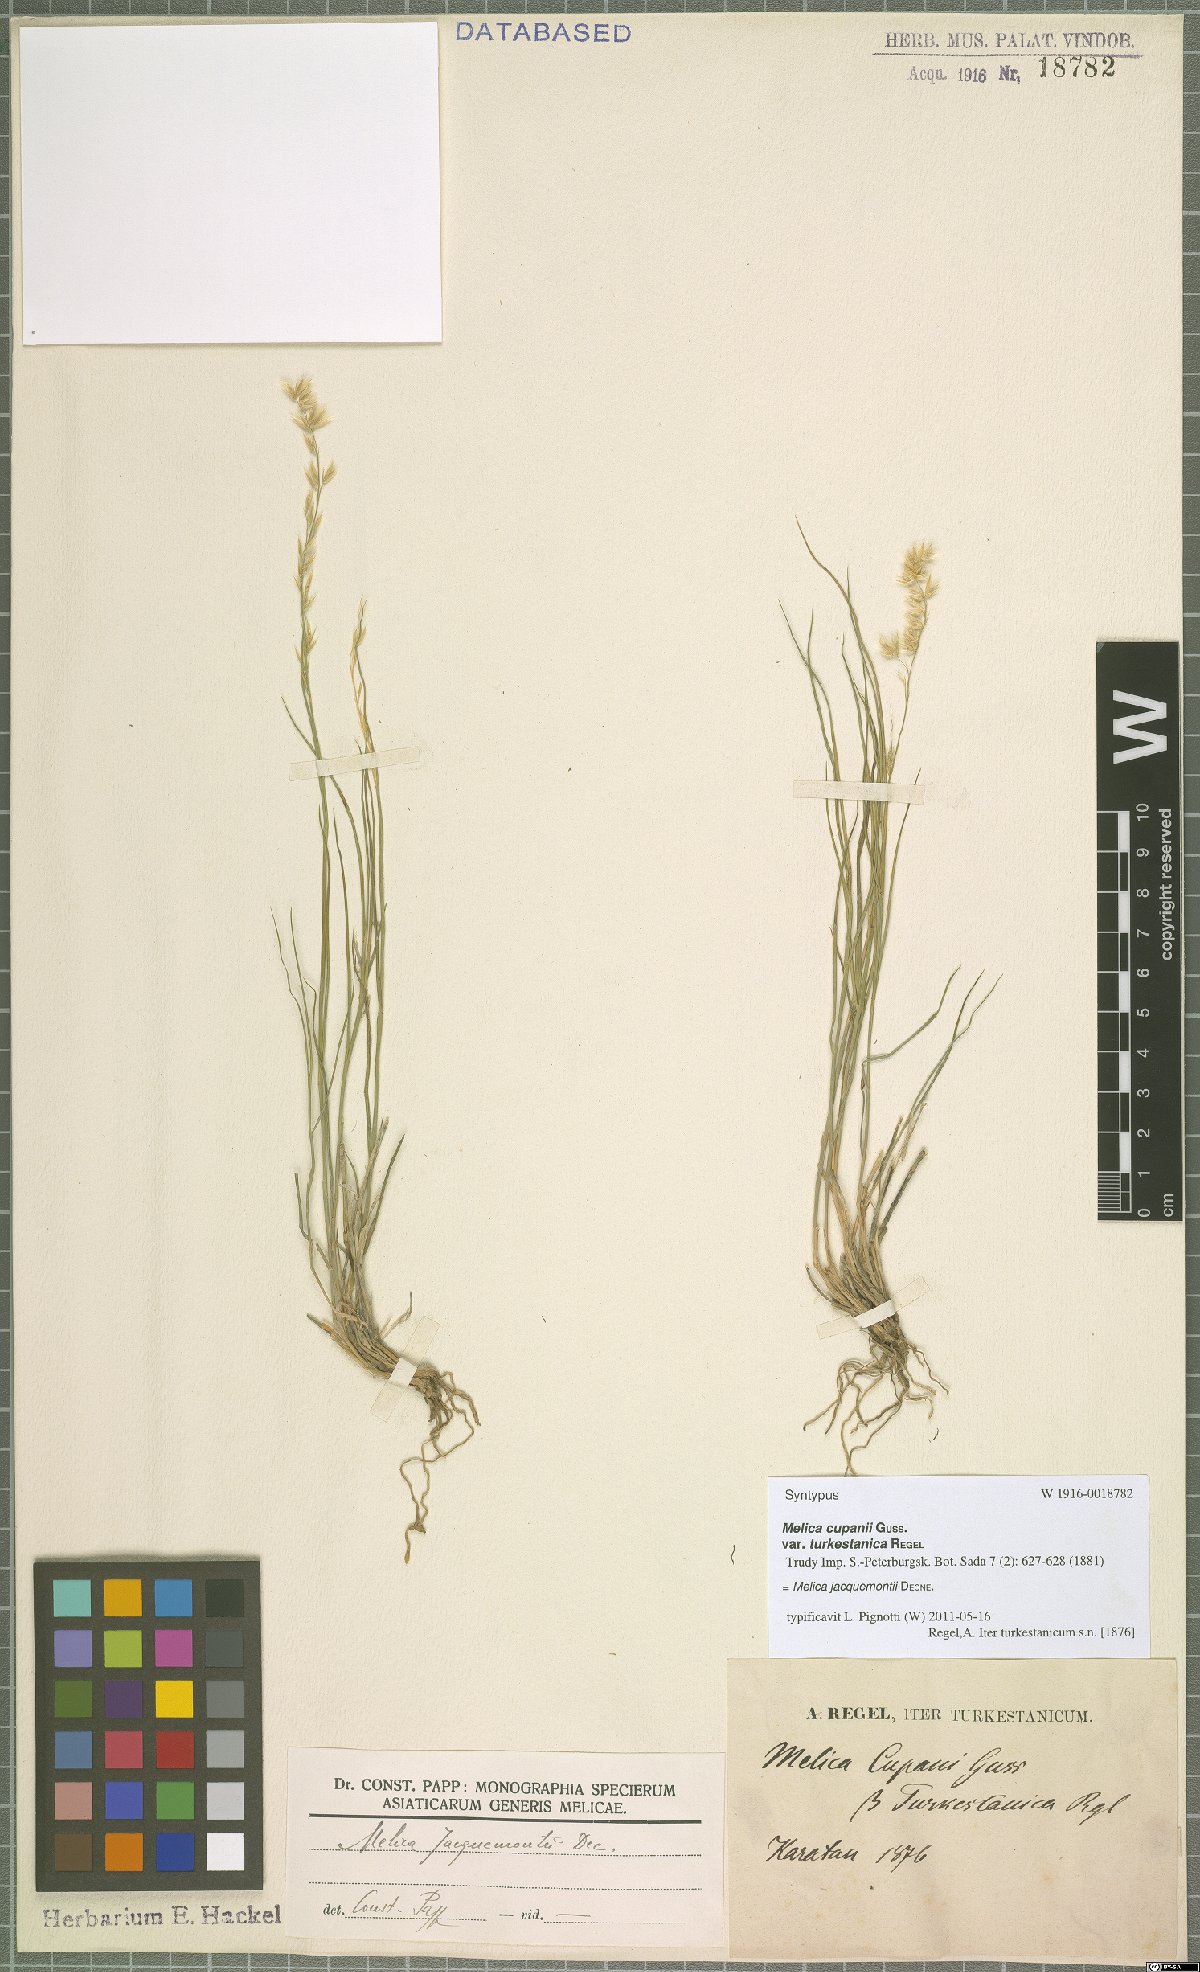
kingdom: Plantae
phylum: Tracheophyta
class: Liliopsida
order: Poales
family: Poaceae
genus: Melica
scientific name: Melica persica
